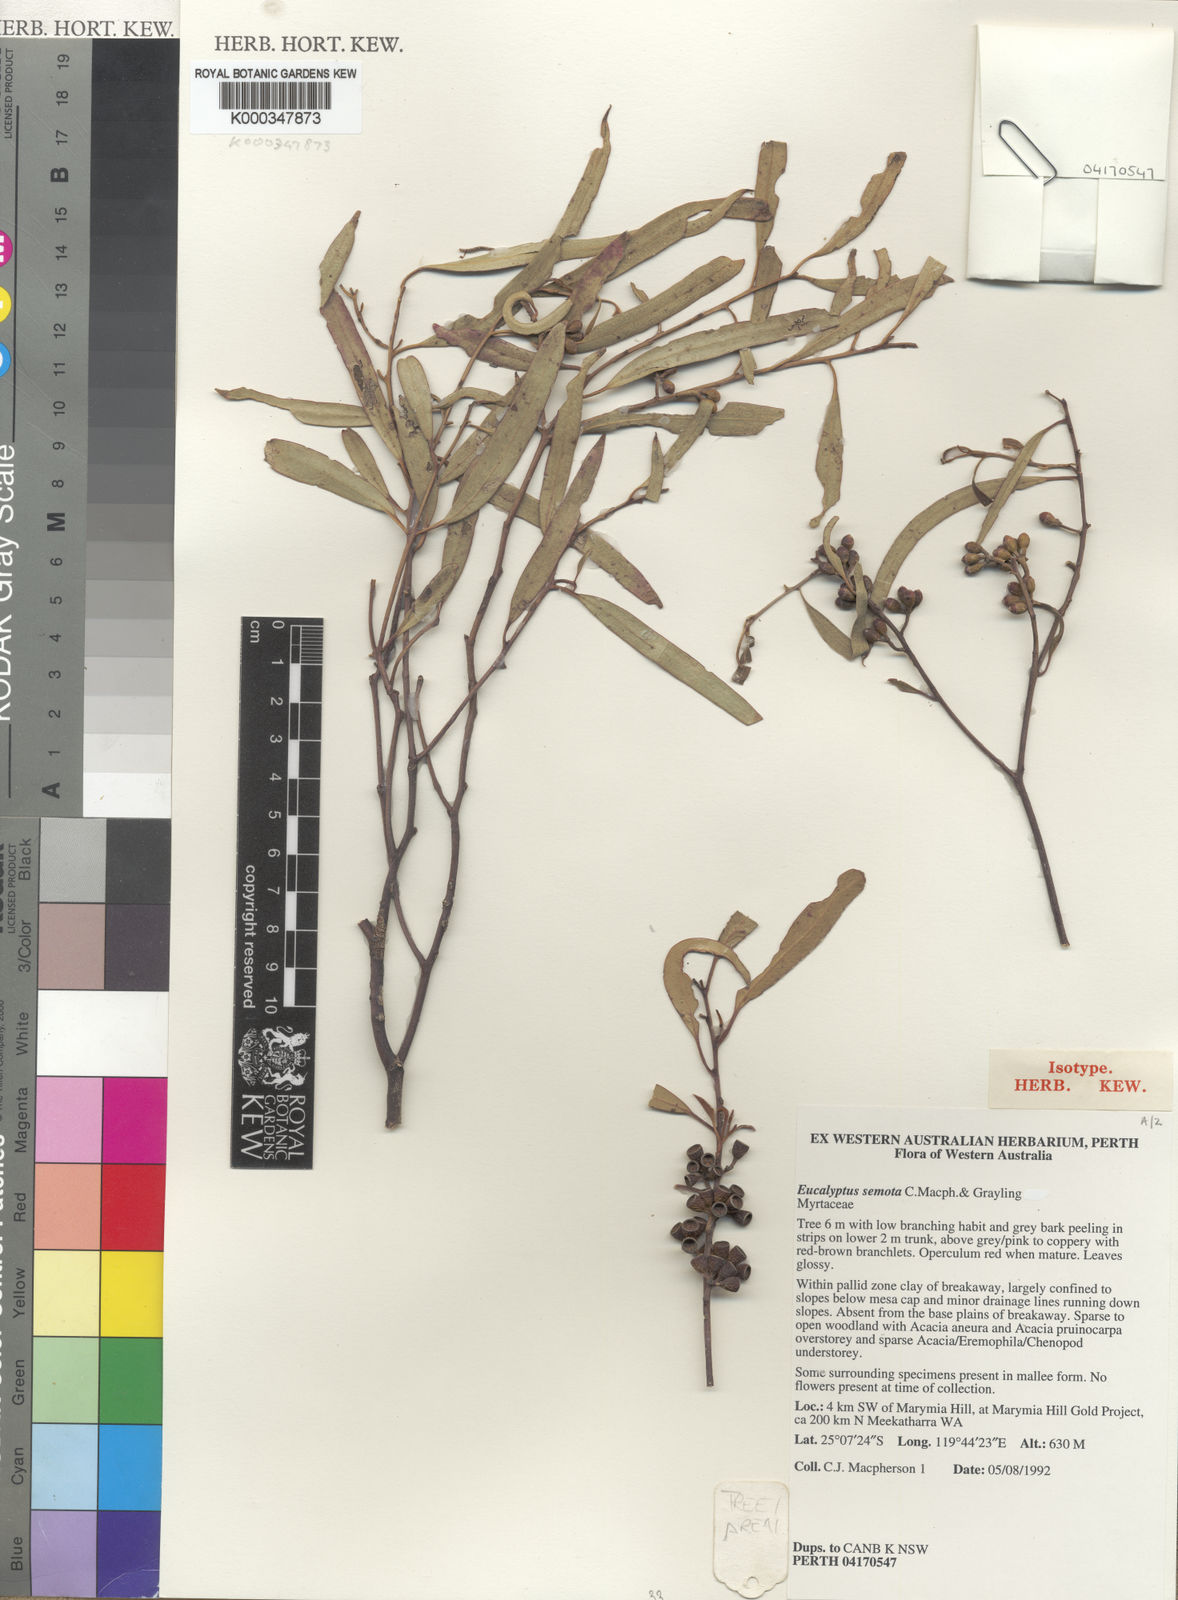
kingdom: Plantae
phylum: Tracheophyta
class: Magnoliopsida
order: Myrtales
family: Myrtaceae
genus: Eucalyptus
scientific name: Eucalyptus semota
